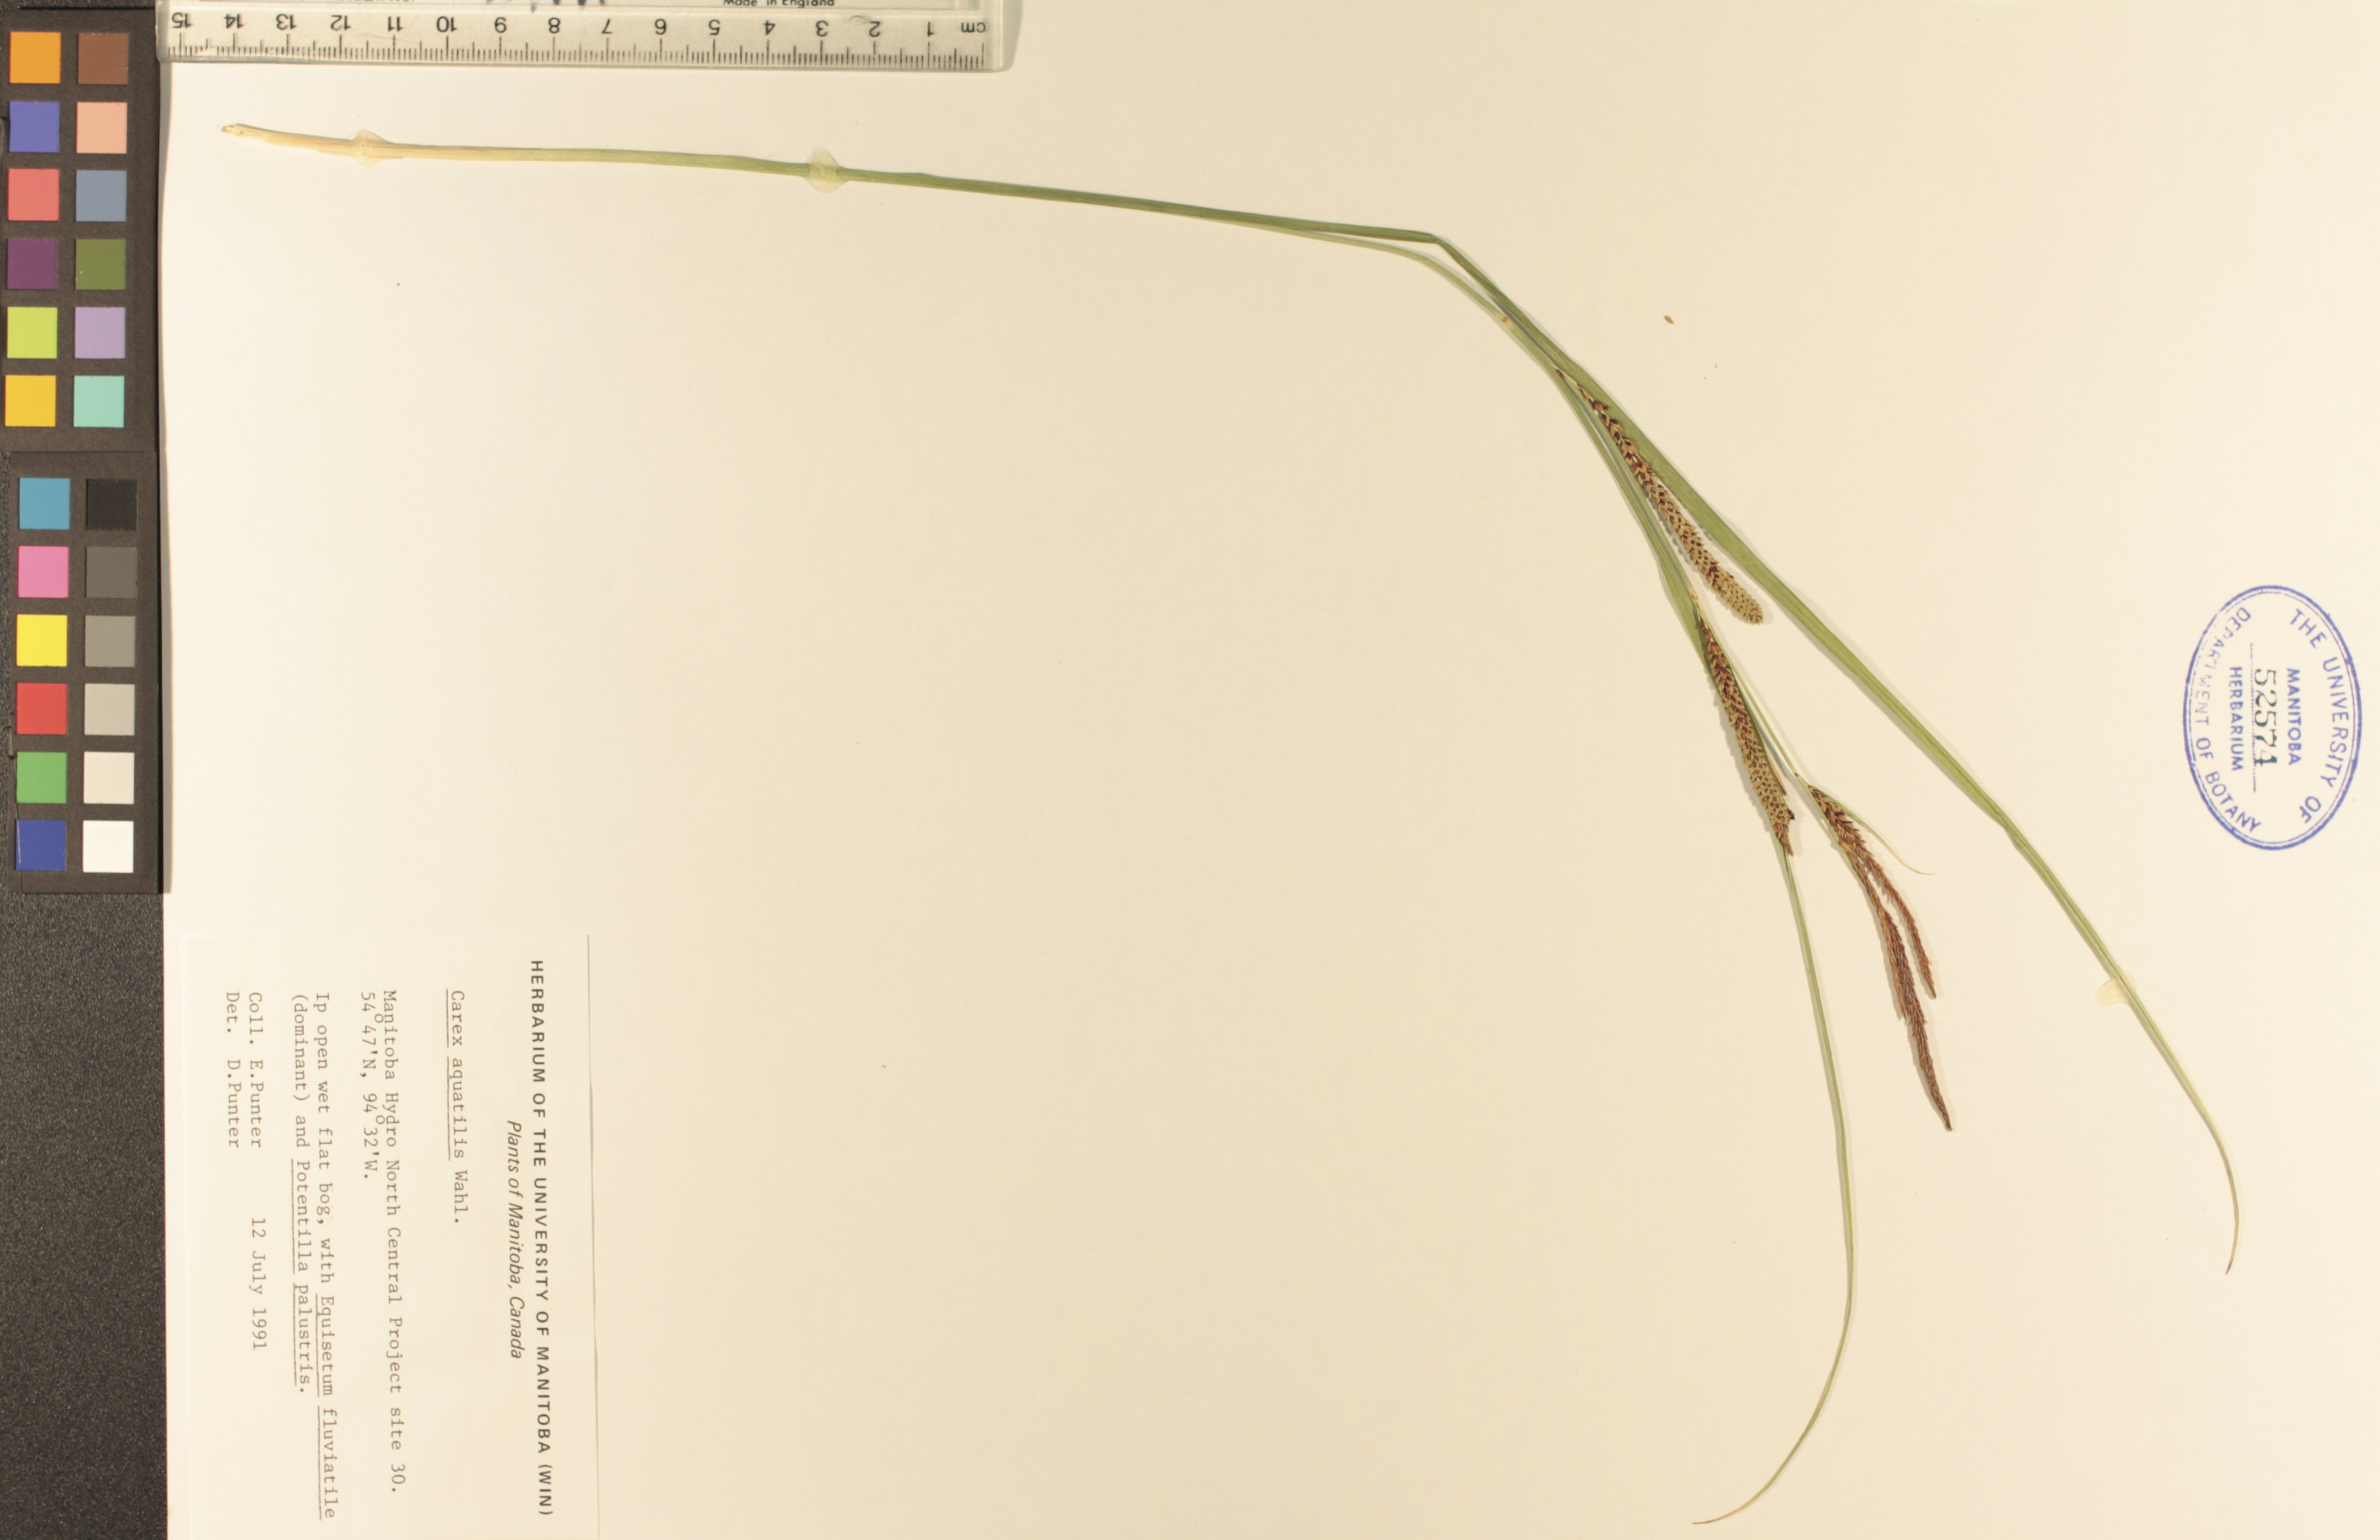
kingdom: Plantae
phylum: Tracheophyta
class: Liliopsida
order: Poales
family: Cyperaceae
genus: Carex
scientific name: Carex aquatilis
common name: Water sedge
